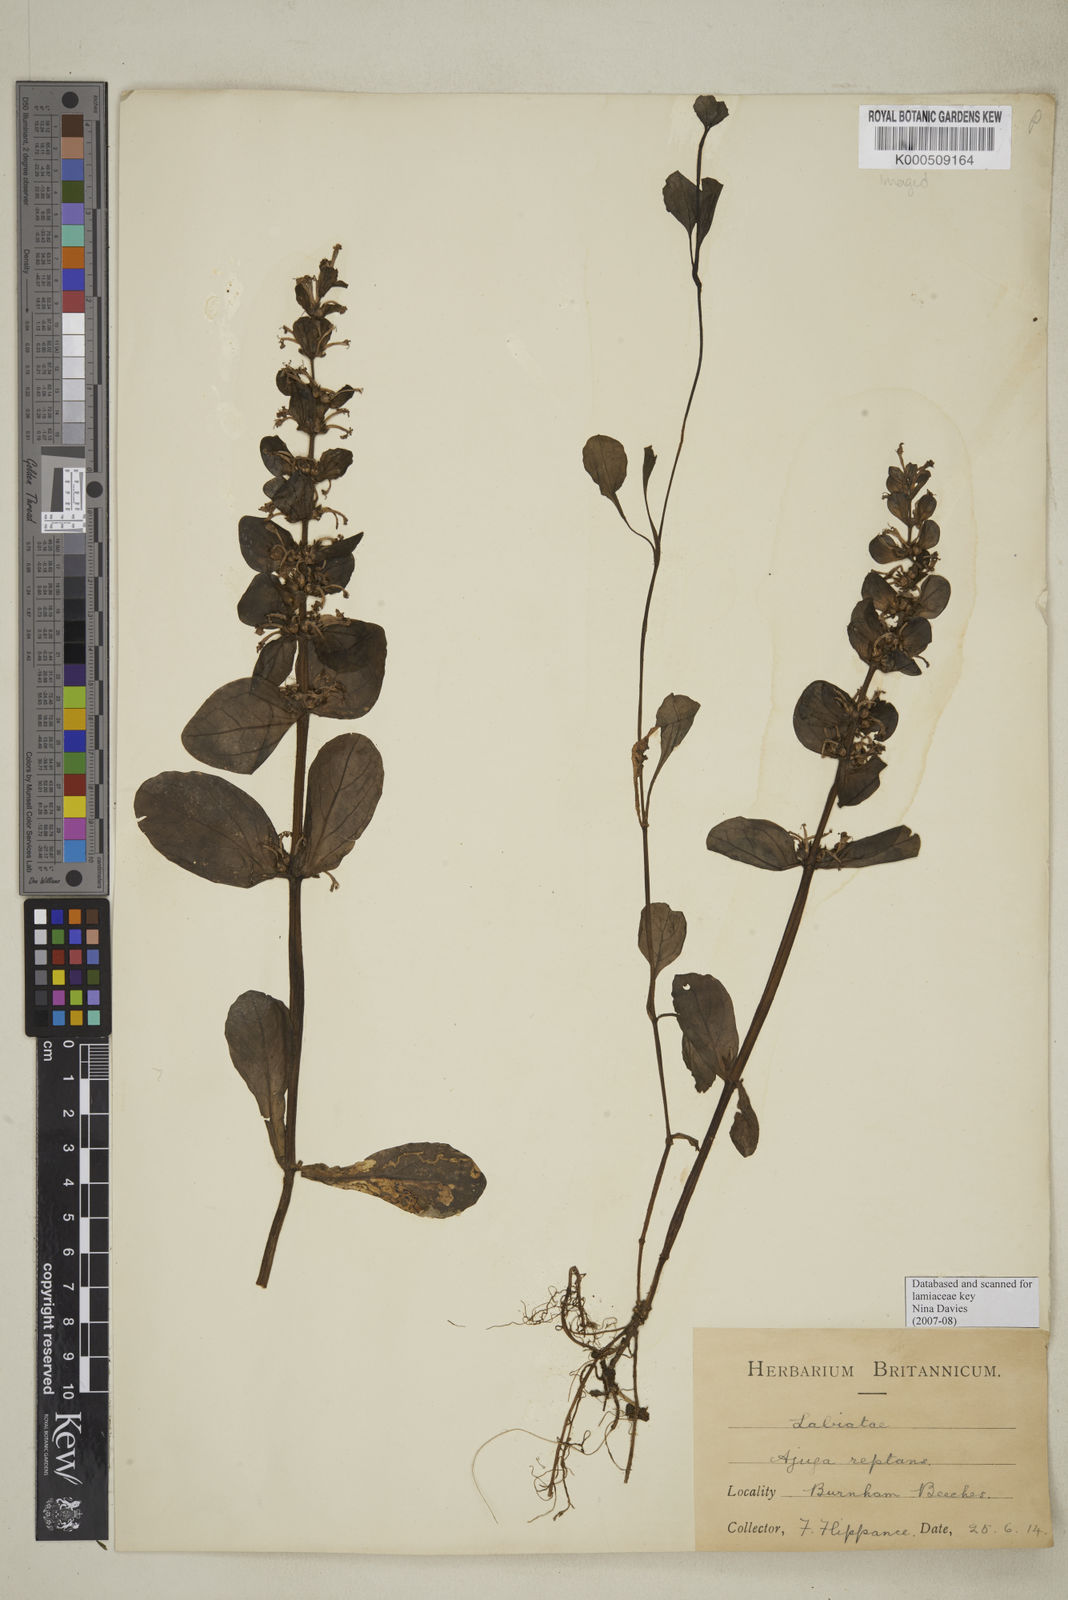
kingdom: Plantae
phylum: Tracheophyta
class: Magnoliopsida
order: Lamiales
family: Lamiaceae
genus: Ajuga
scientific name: Ajuga reptans
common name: Bugle
